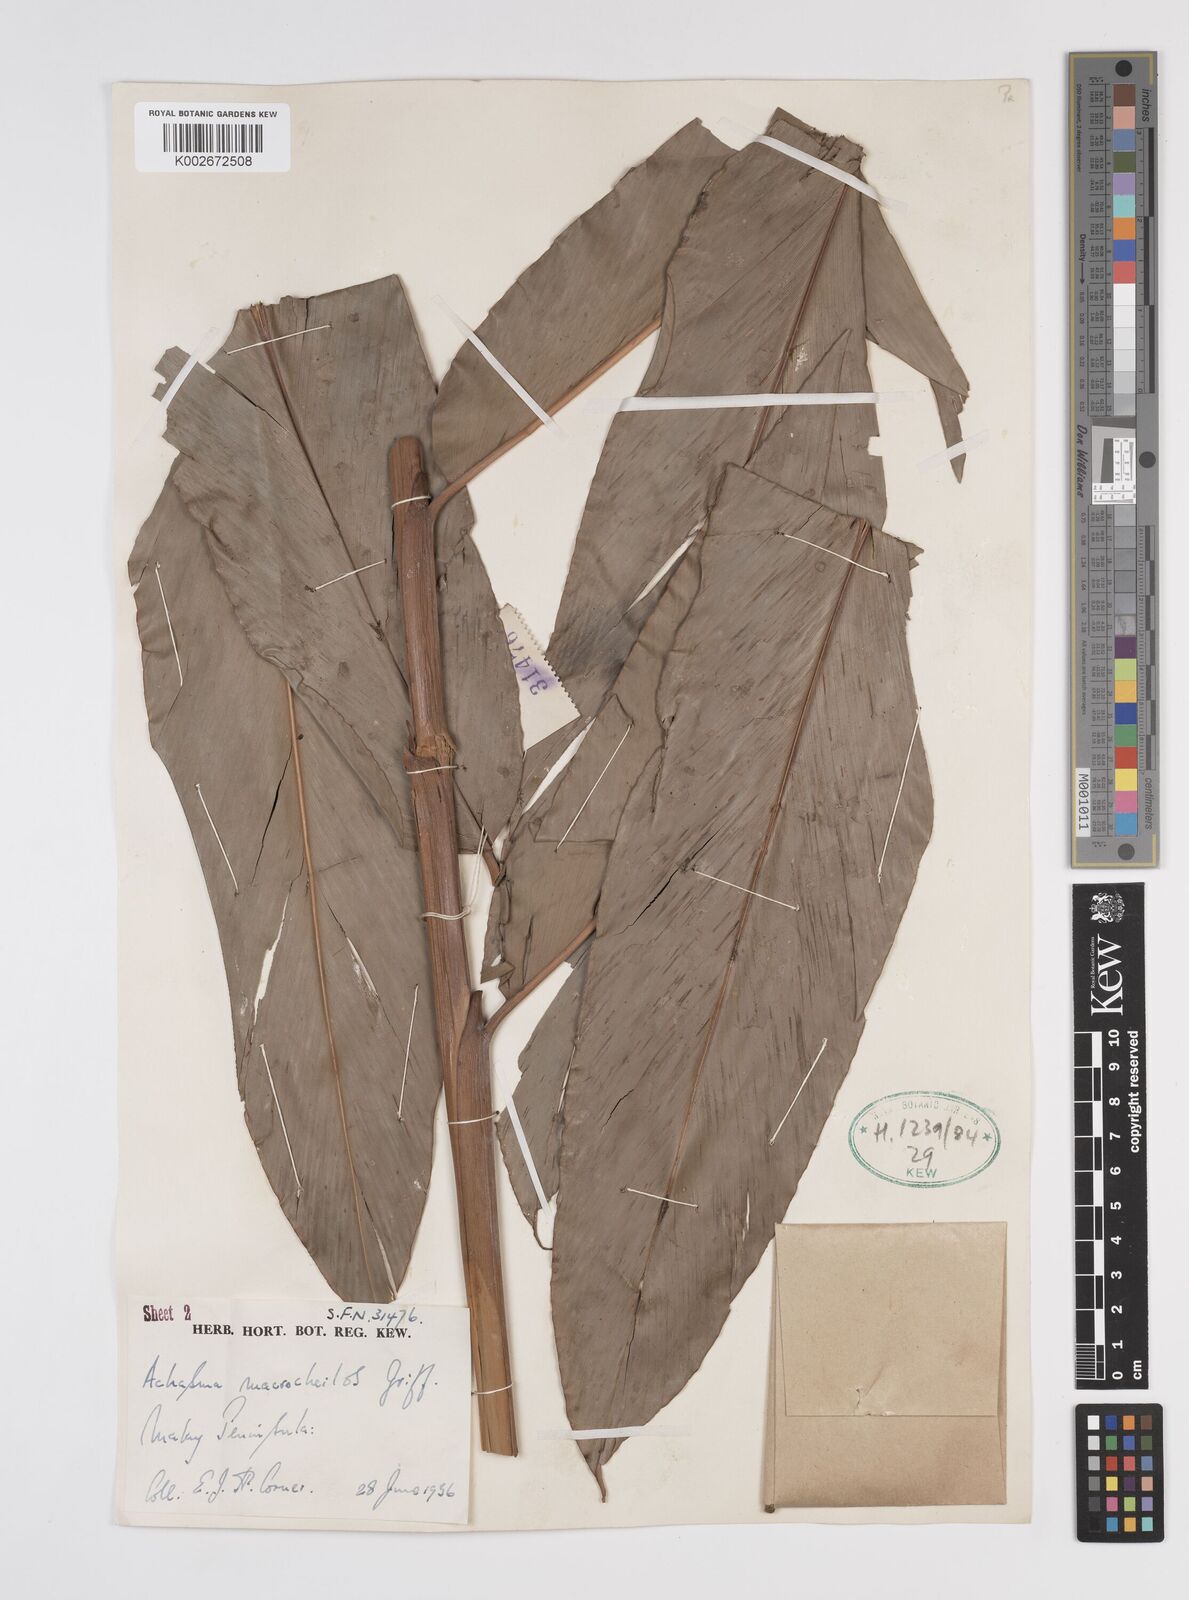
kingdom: Plantae
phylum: Tracheophyta
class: Liliopsida
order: Zingiberales
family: Zingiberaceae
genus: Etlingera
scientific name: Etlingera punicea
